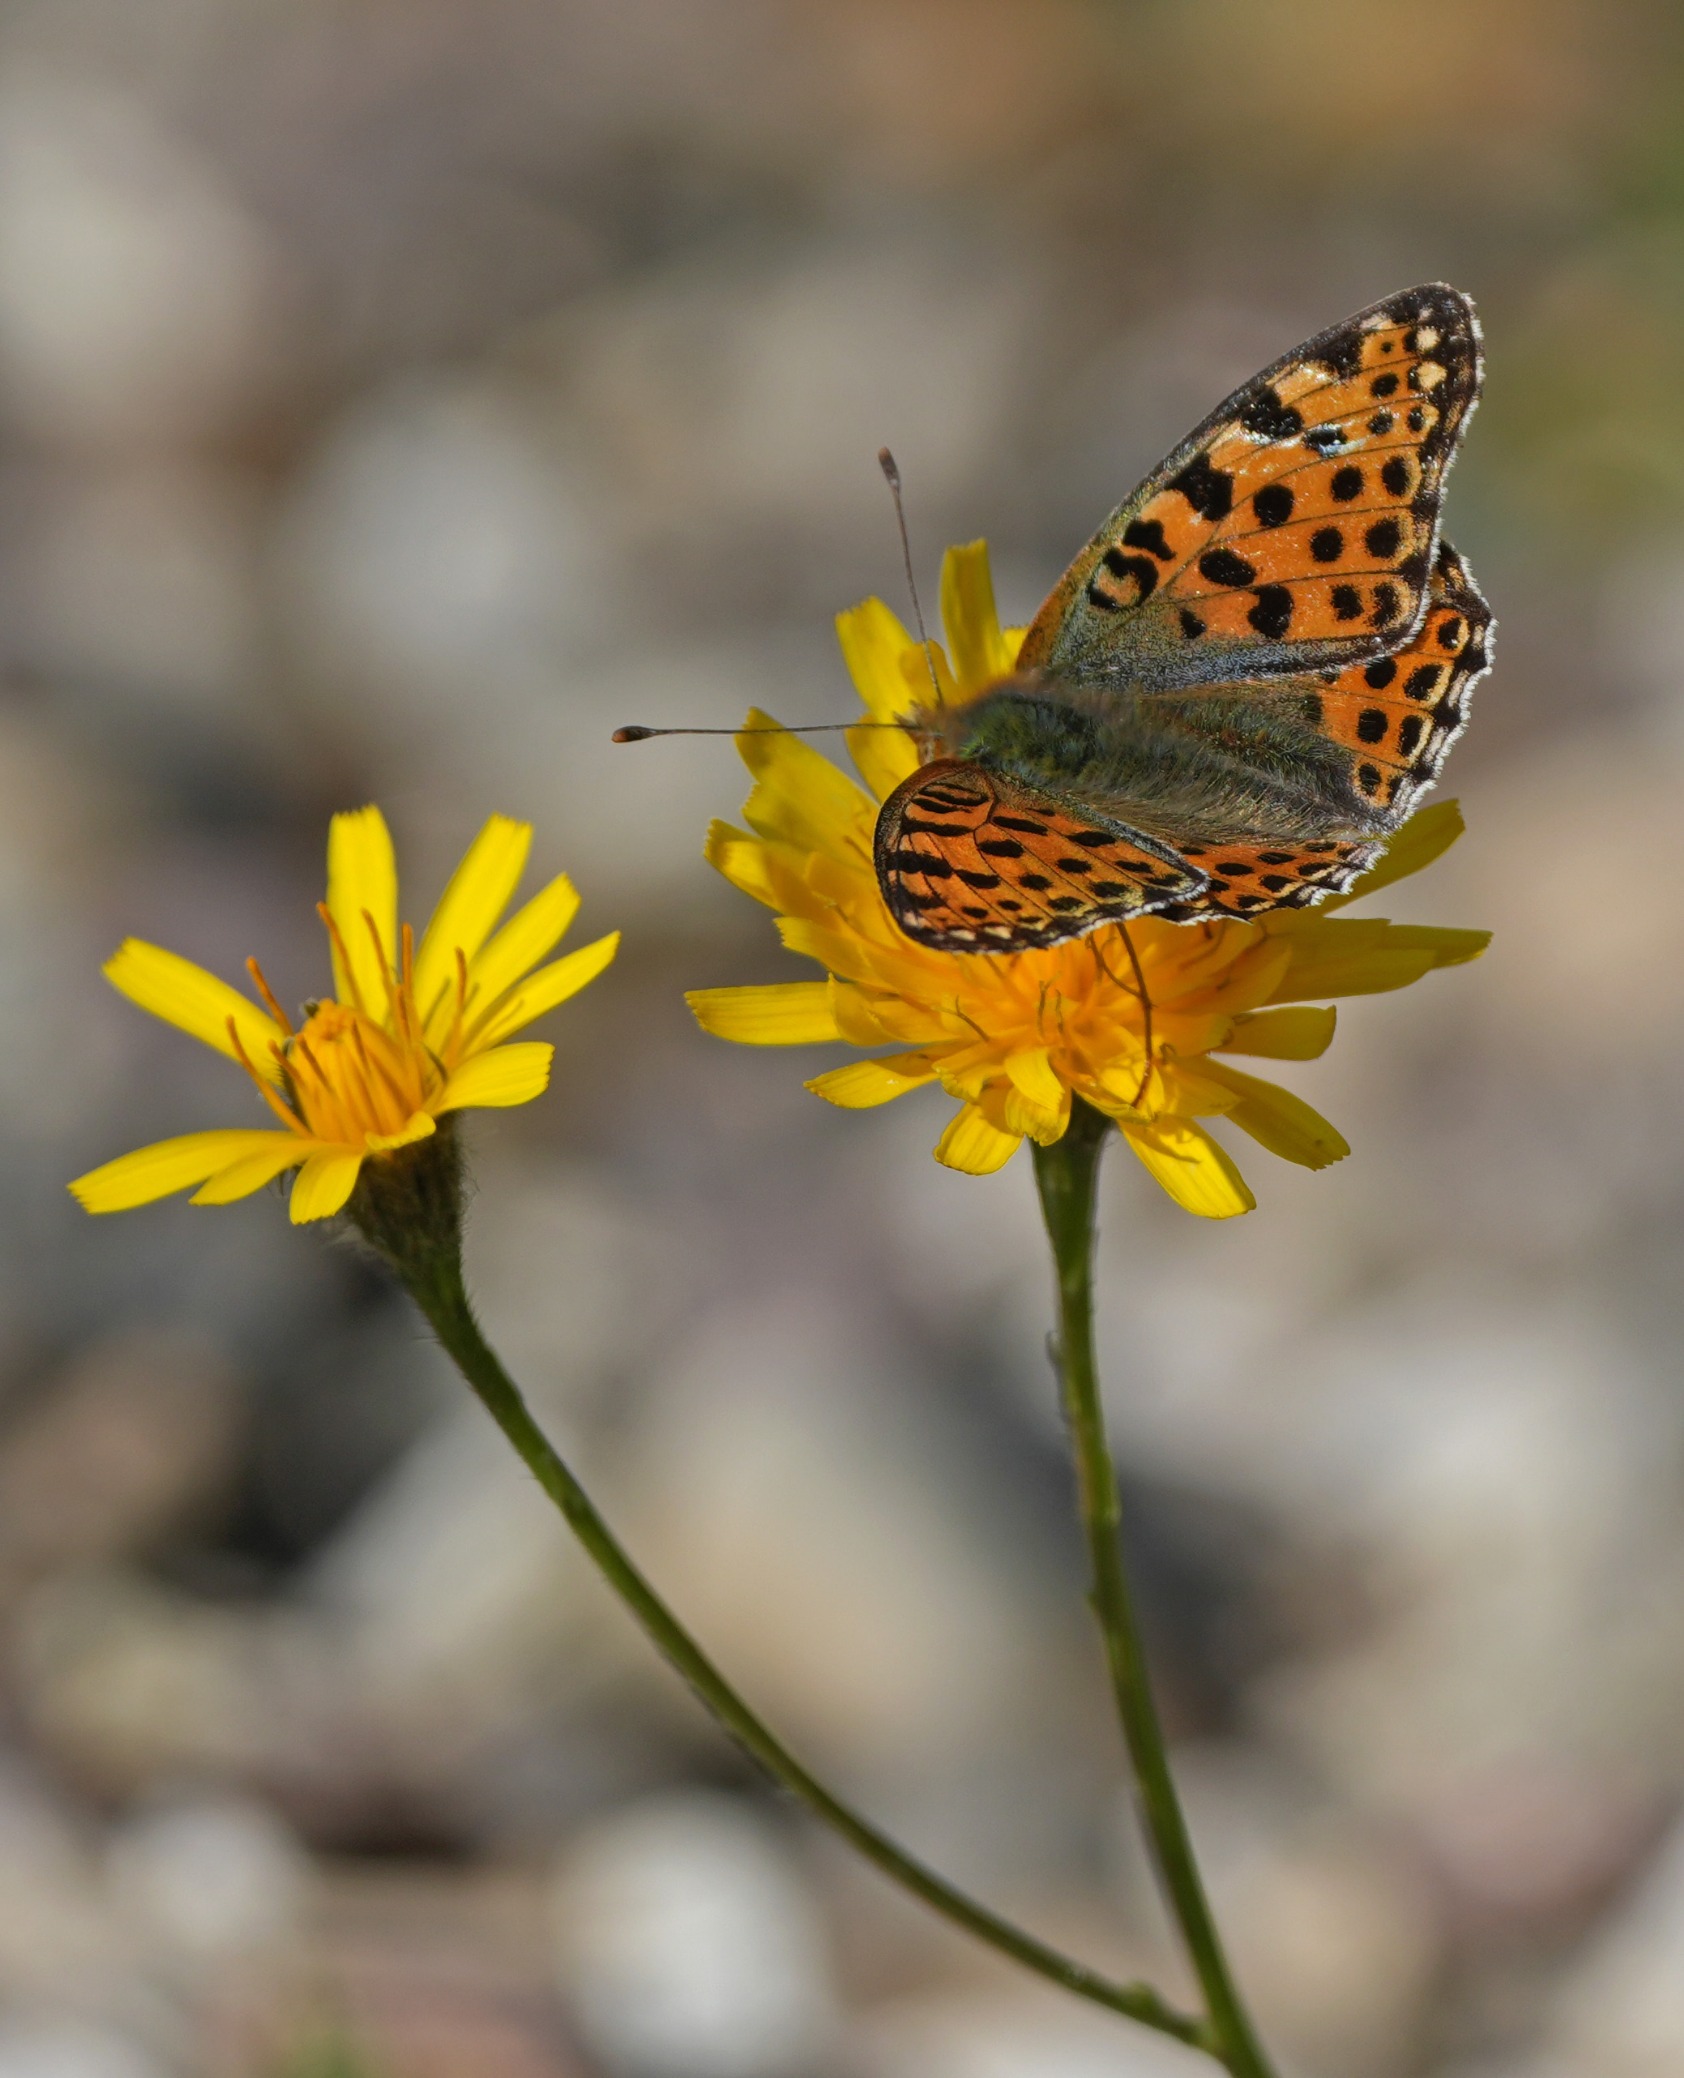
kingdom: Animalia
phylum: Arthropoda
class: Insecta
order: Lepidoptera
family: Nymphalidae
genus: Issoria
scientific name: Issoria lathonia
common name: Storplettet perlemorsommerfugl
